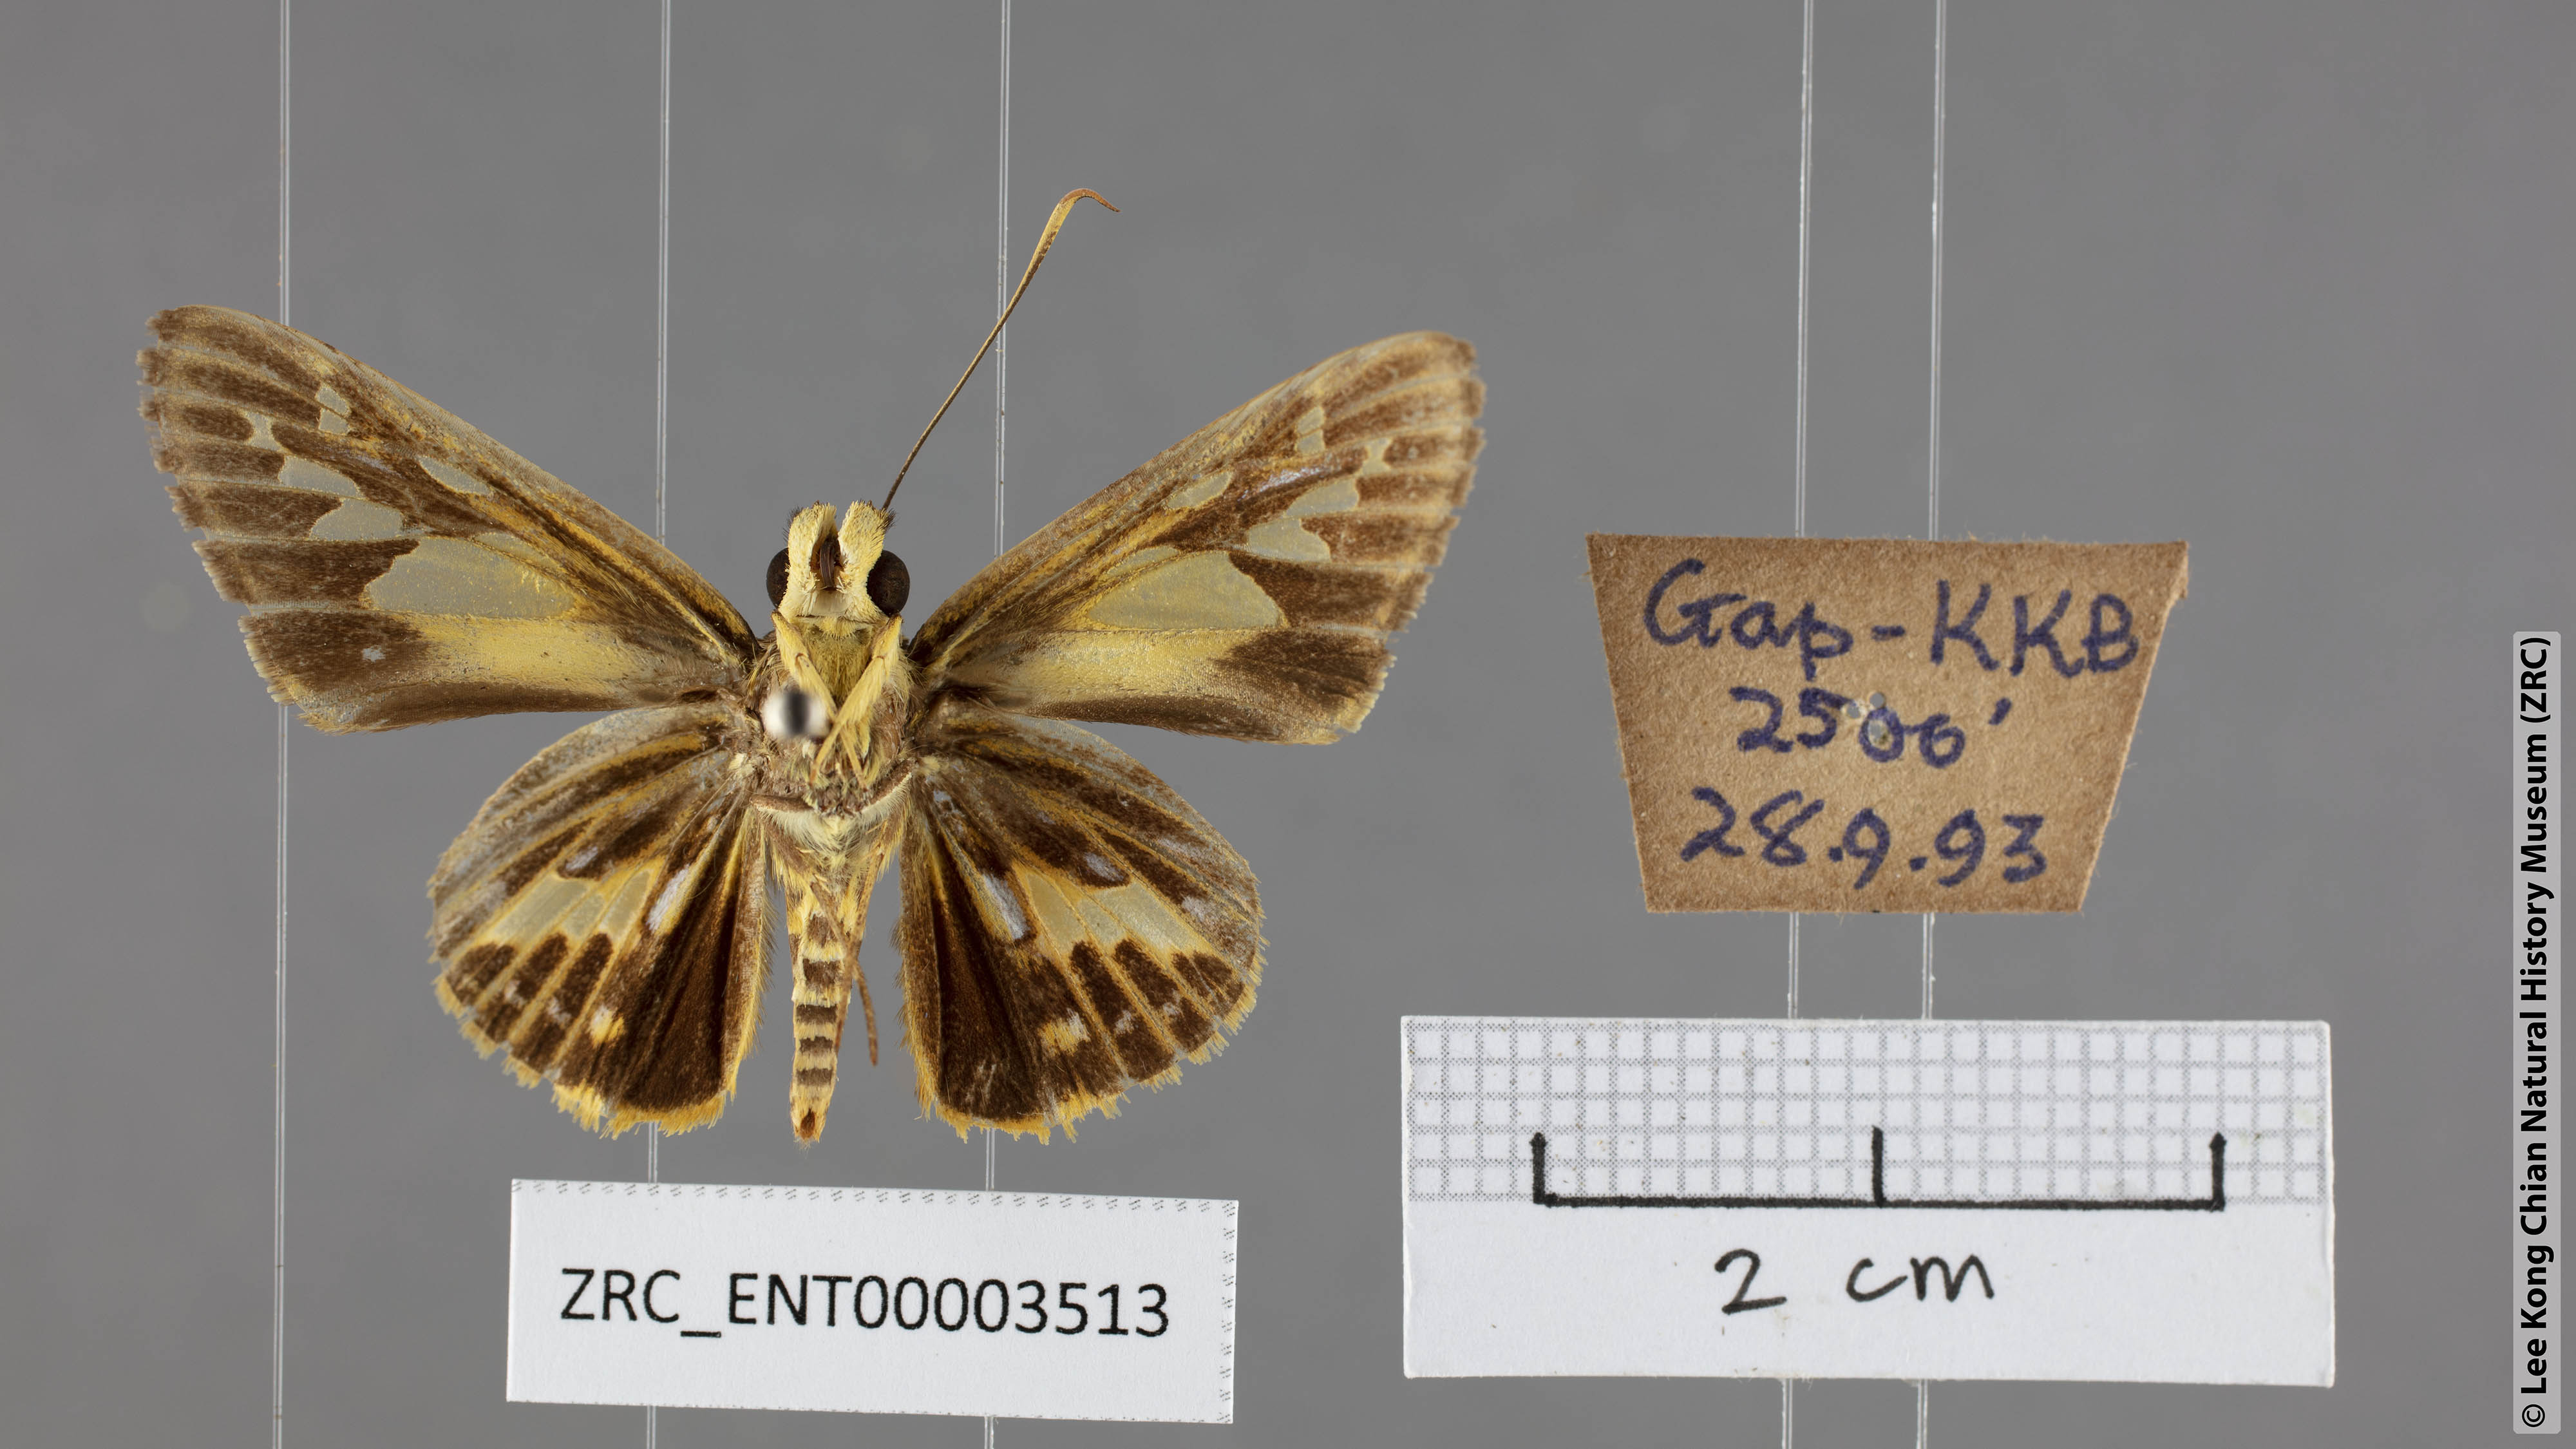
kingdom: Animalia
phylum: Arthropoda
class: Insecta
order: Lepidoptera
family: Hesperiidae
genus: Pyroneura
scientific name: Pyroneura latoia
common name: Yellow vein lancer
